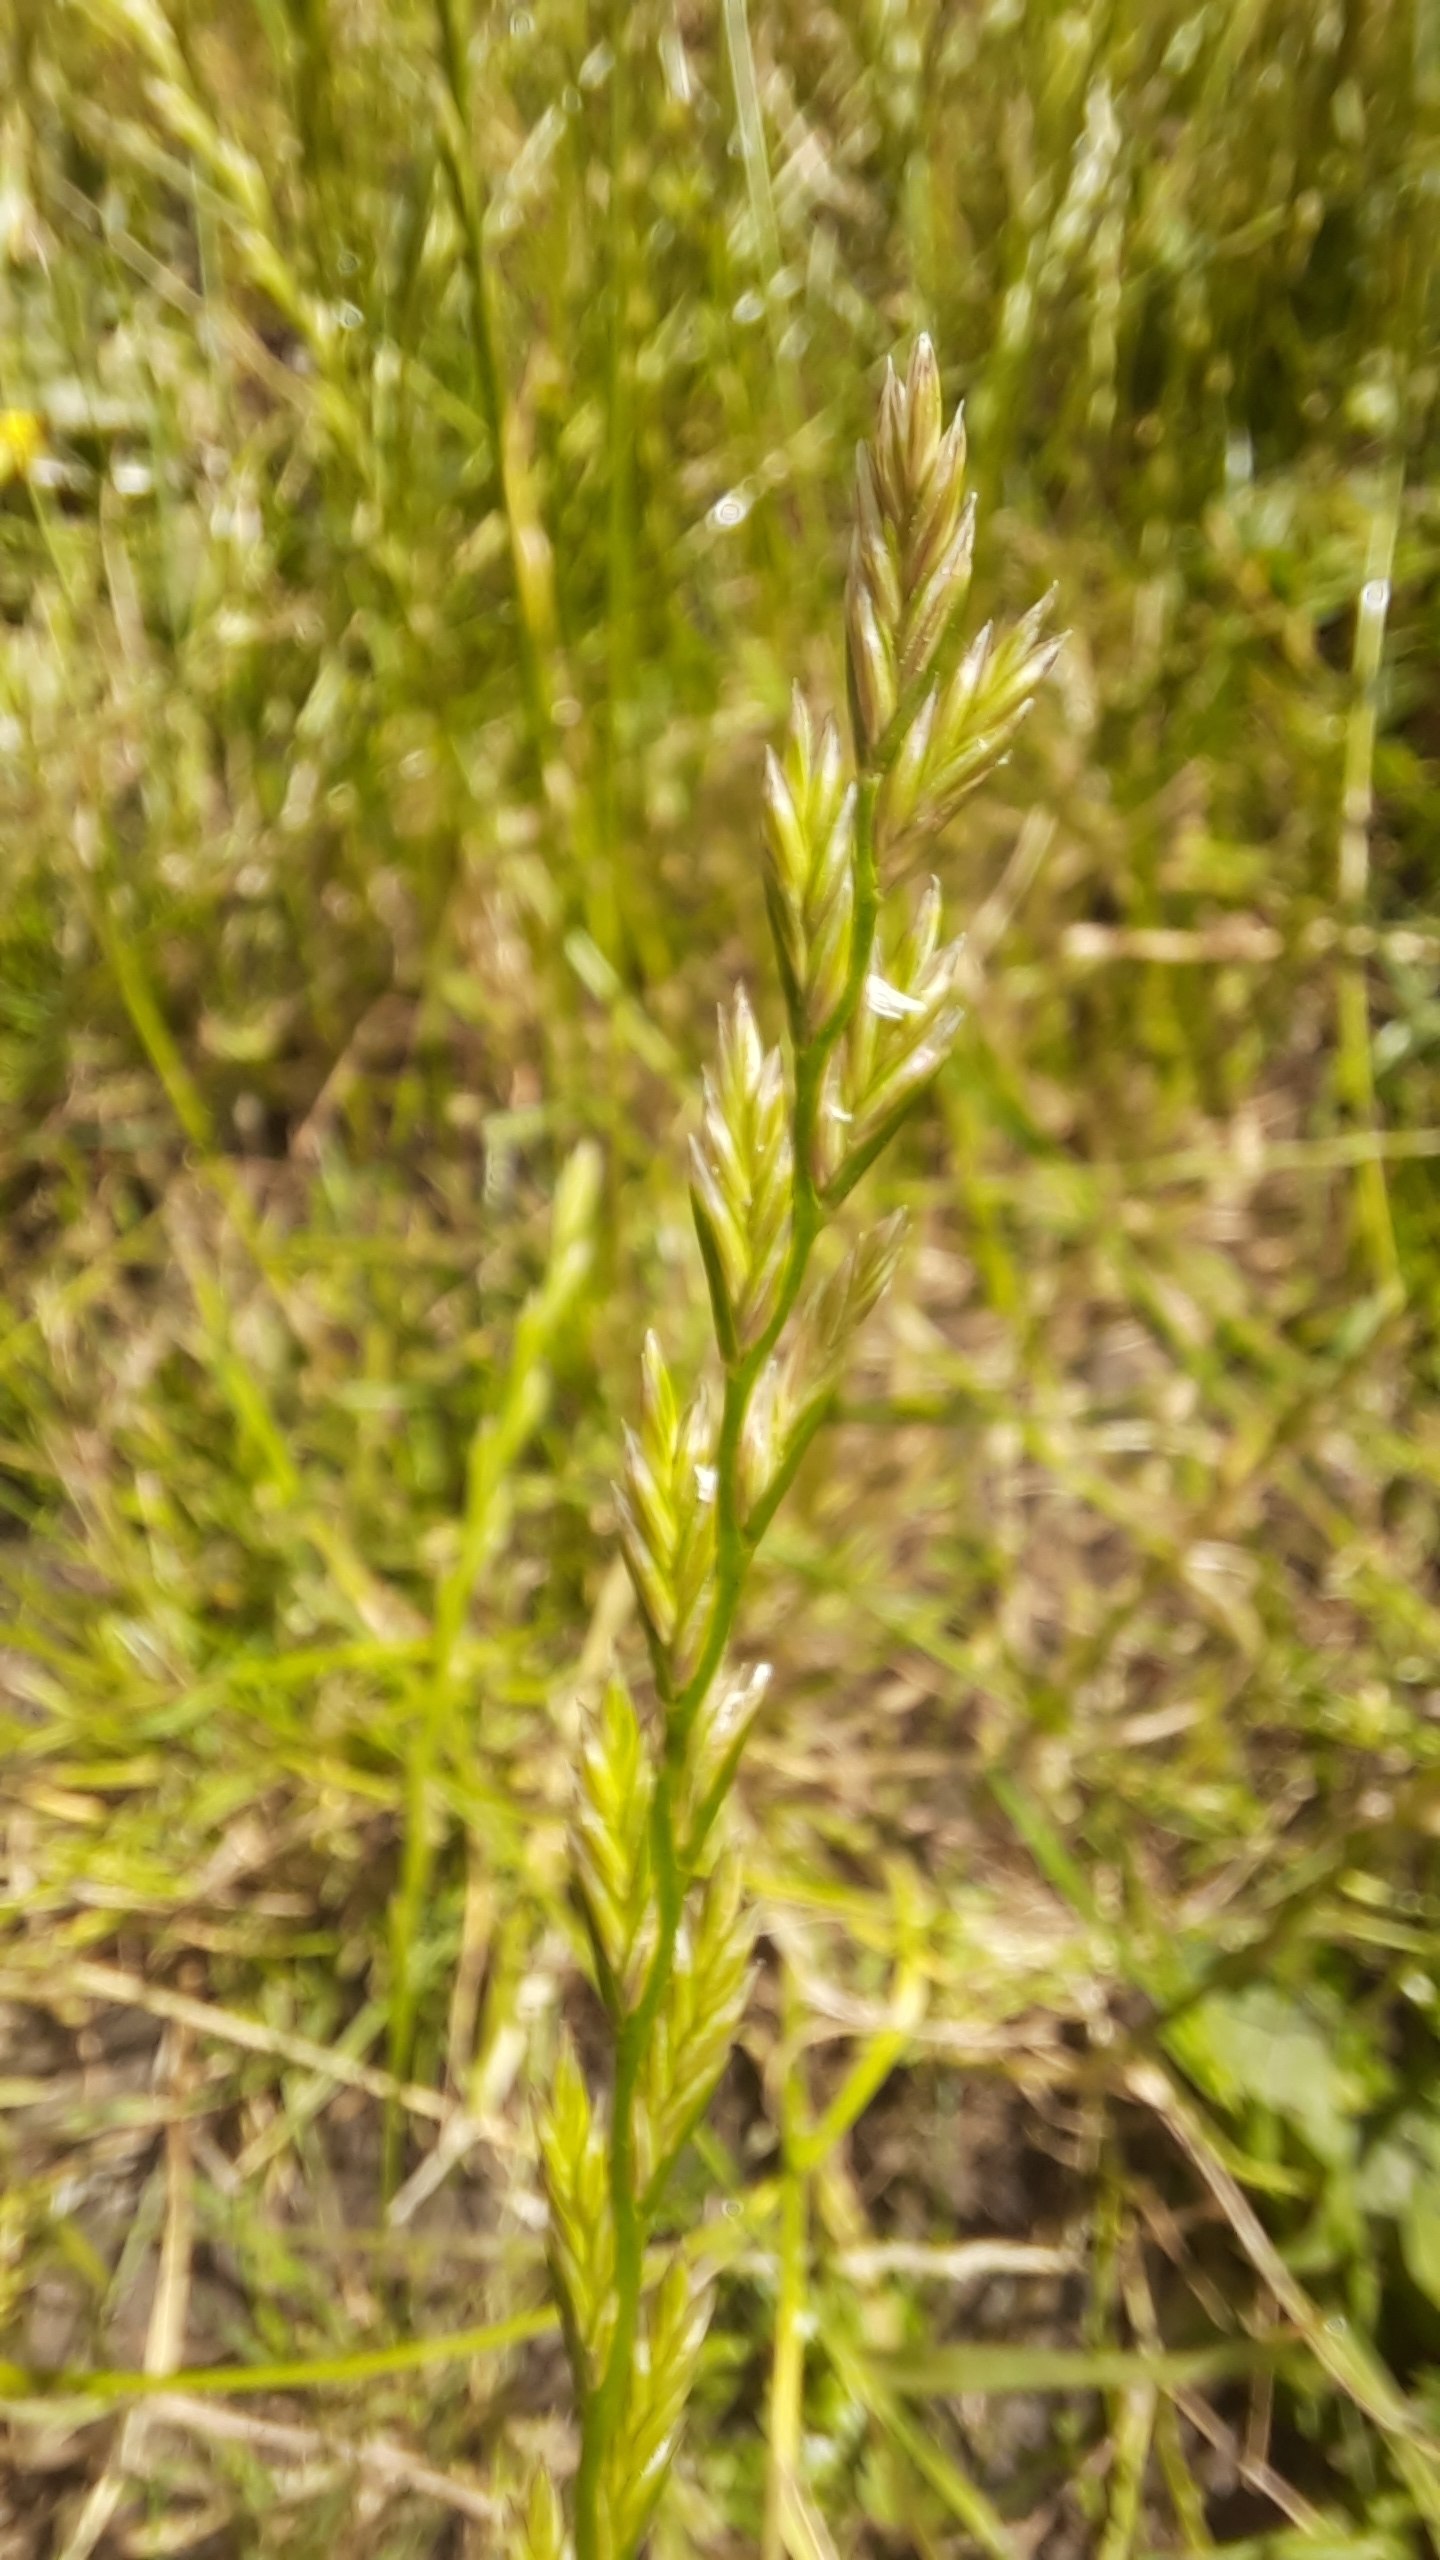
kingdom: Plantae
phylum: Tracheophyta
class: Liliopsida
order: Poales
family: Poaceae
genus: Lolium
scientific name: Lolium perenne
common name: Almindelig rajgræs
